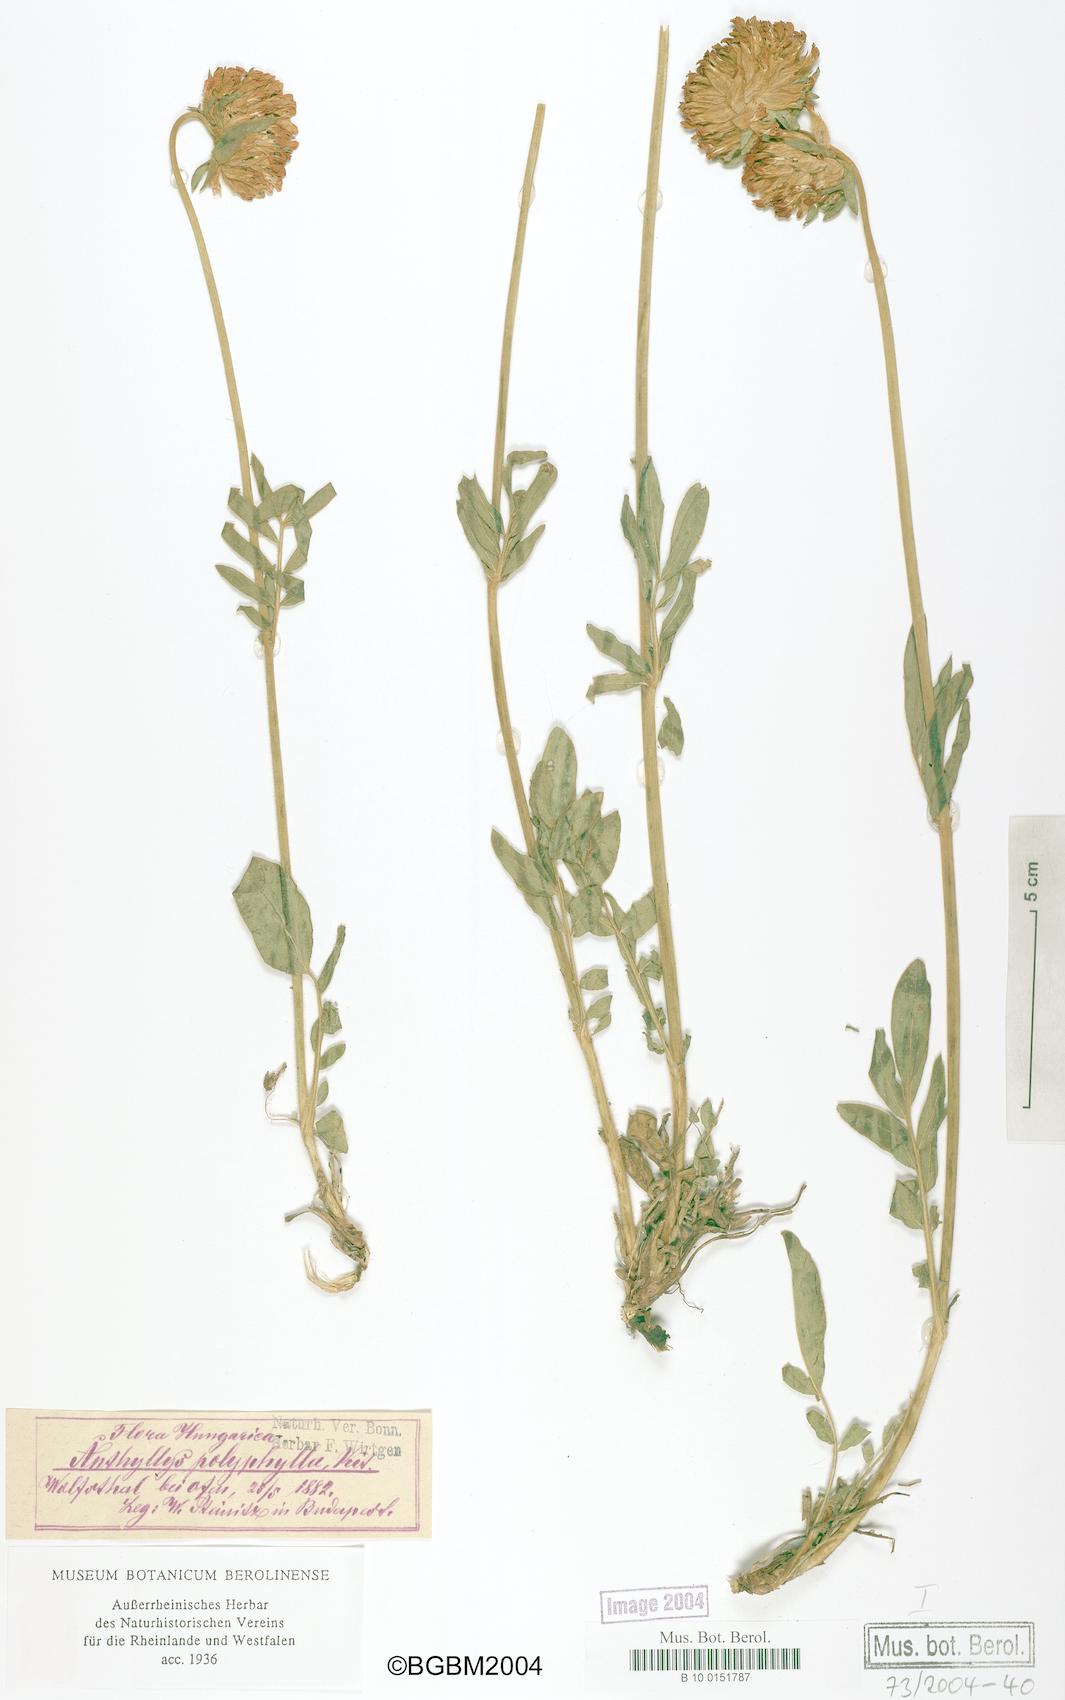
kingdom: Plantae
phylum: Tracheophyta
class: Magnoliopsida
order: Fabales
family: Fabaceae
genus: Anthyllis
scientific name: Anthyllis vulneraria
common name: Kidney vetch
